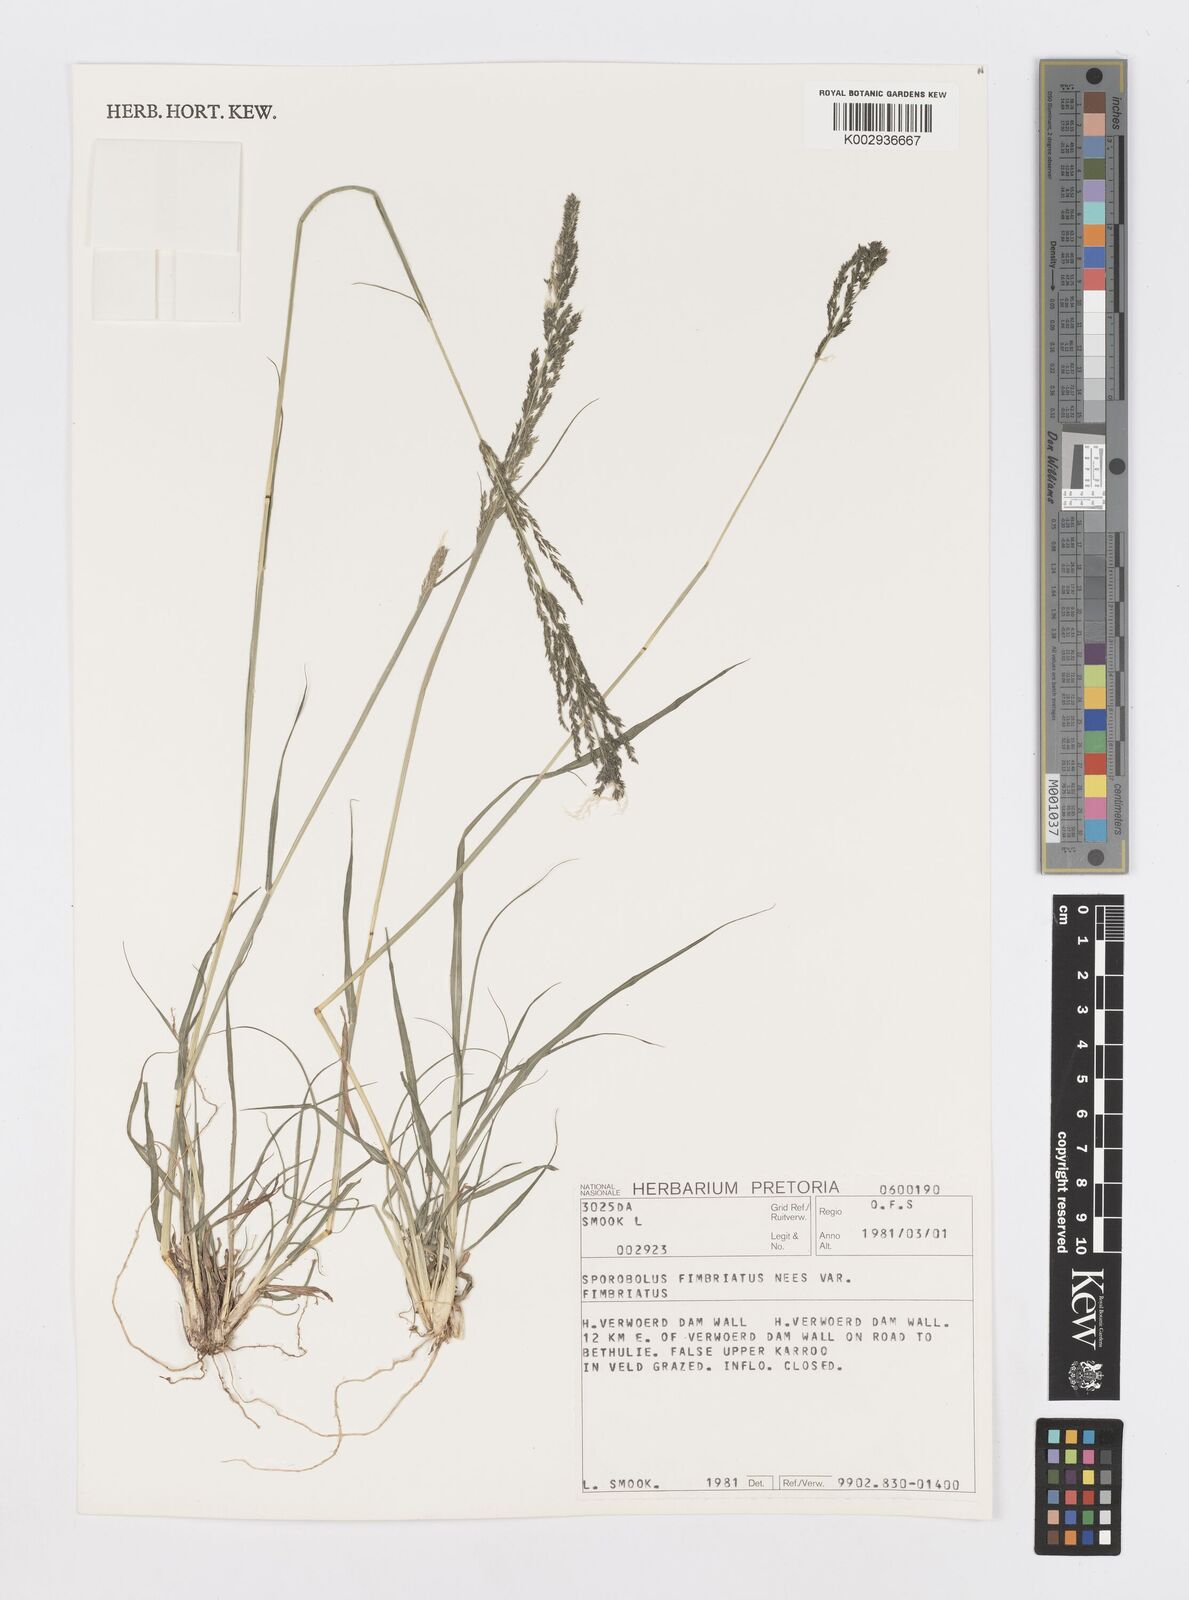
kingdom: Plantae
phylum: Tracheophyta
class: Liliopsida
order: Poales
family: Poaceae
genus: Sporobolus
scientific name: Sporobolus fimbriatus
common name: Fringed dropseed
